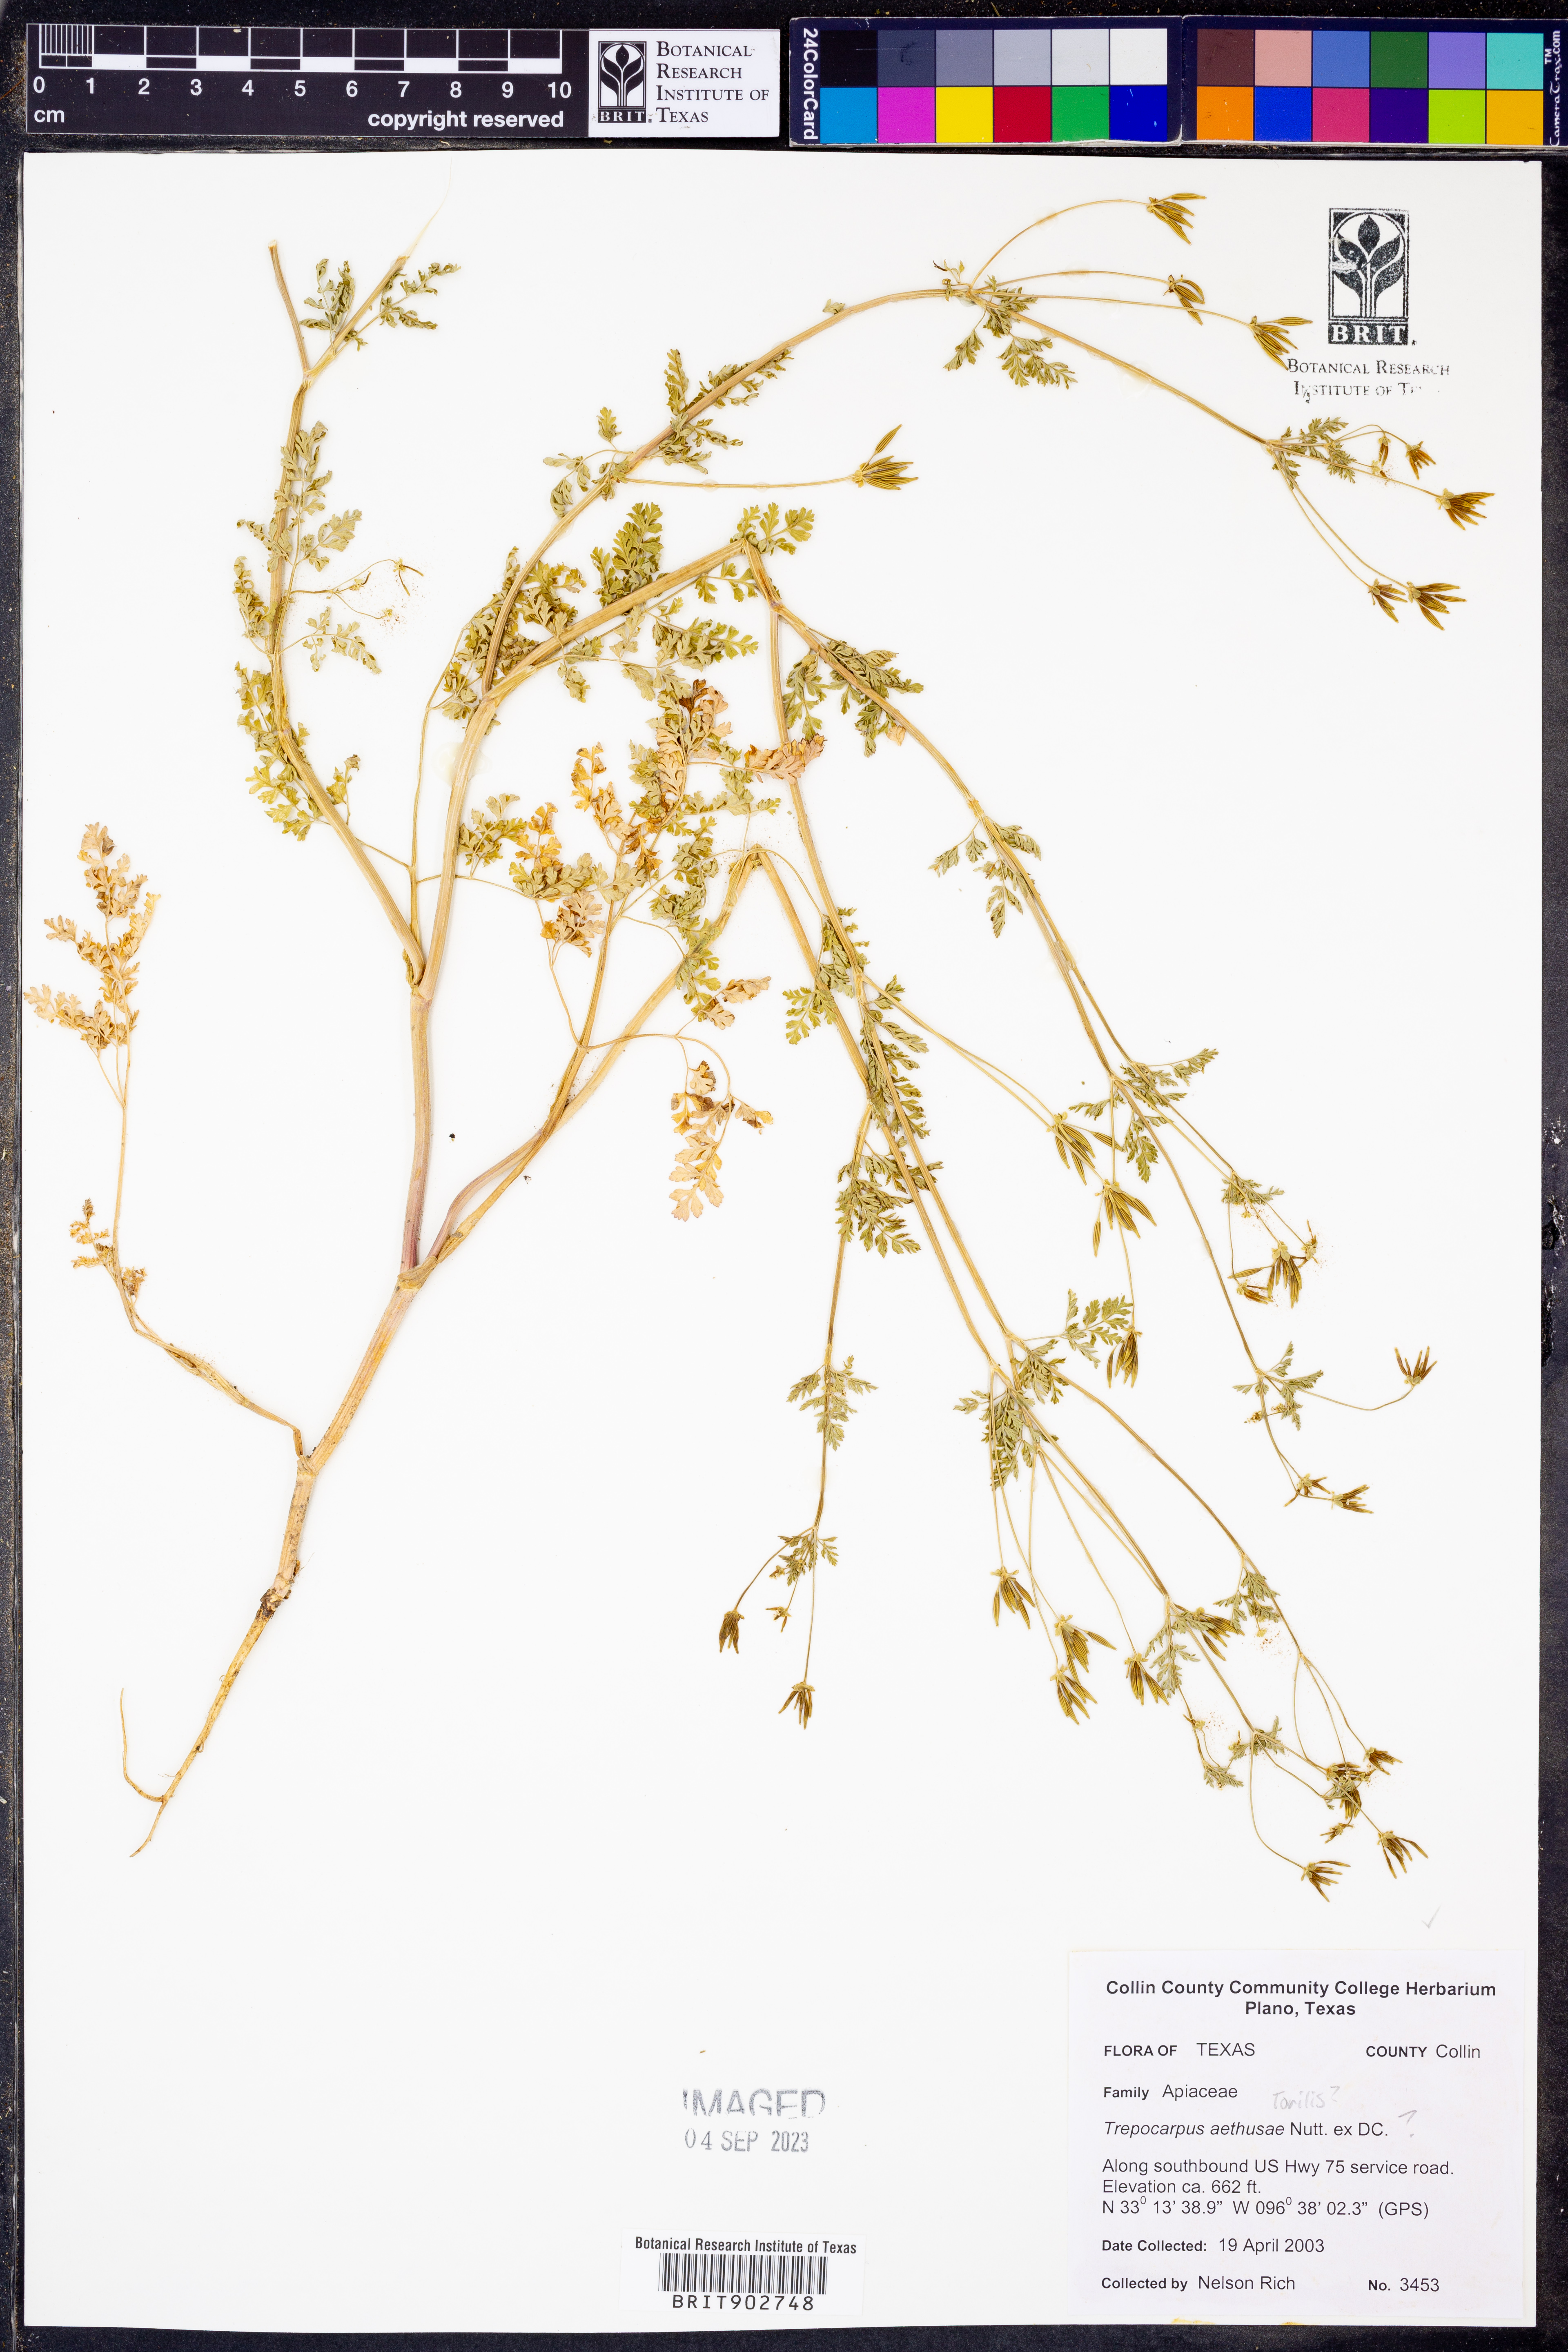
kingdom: Plantae
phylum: Tracheophyta
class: Magnoliopsida
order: Apiales
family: Apiaceae
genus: Trepocarpus
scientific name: Trepocarpus aethusae
